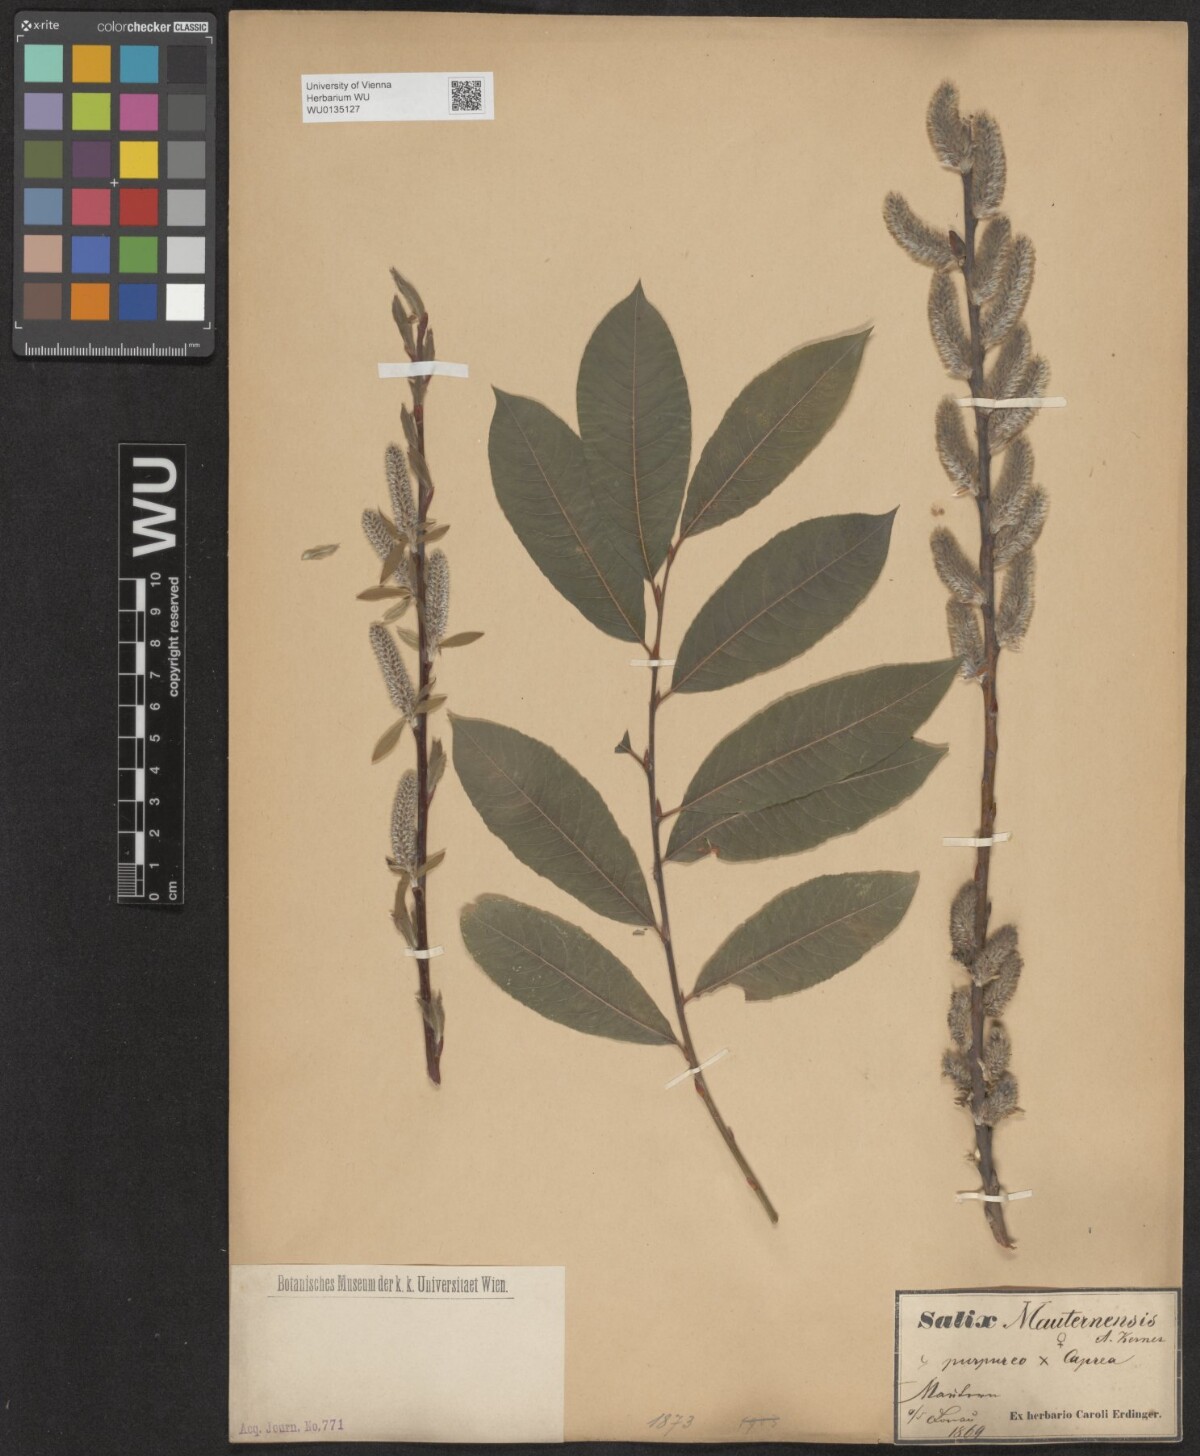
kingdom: Plantae
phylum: Tracheophyta
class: Magnoliopsida
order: Malpighiales
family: Salicaceae
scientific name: Salicaceae
